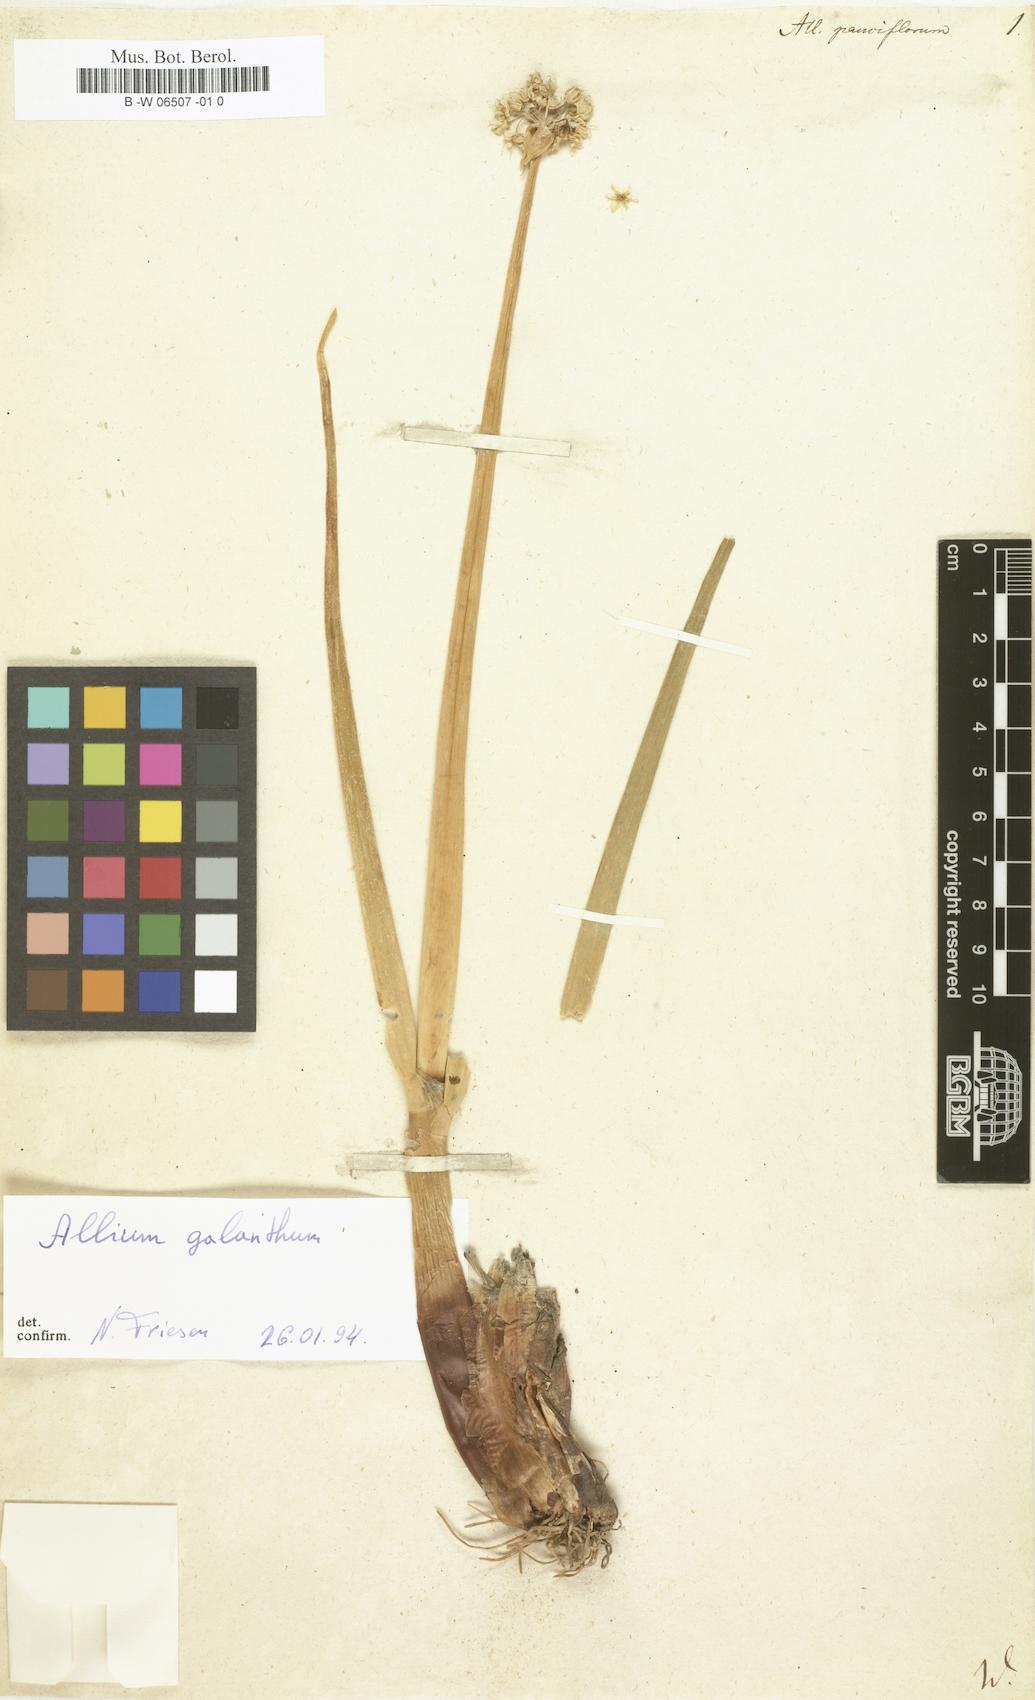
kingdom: Plantae
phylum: Tracheophyta
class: Liliopsida
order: Asparagales
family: Amaryllidaceae
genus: Allium
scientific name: Allium
